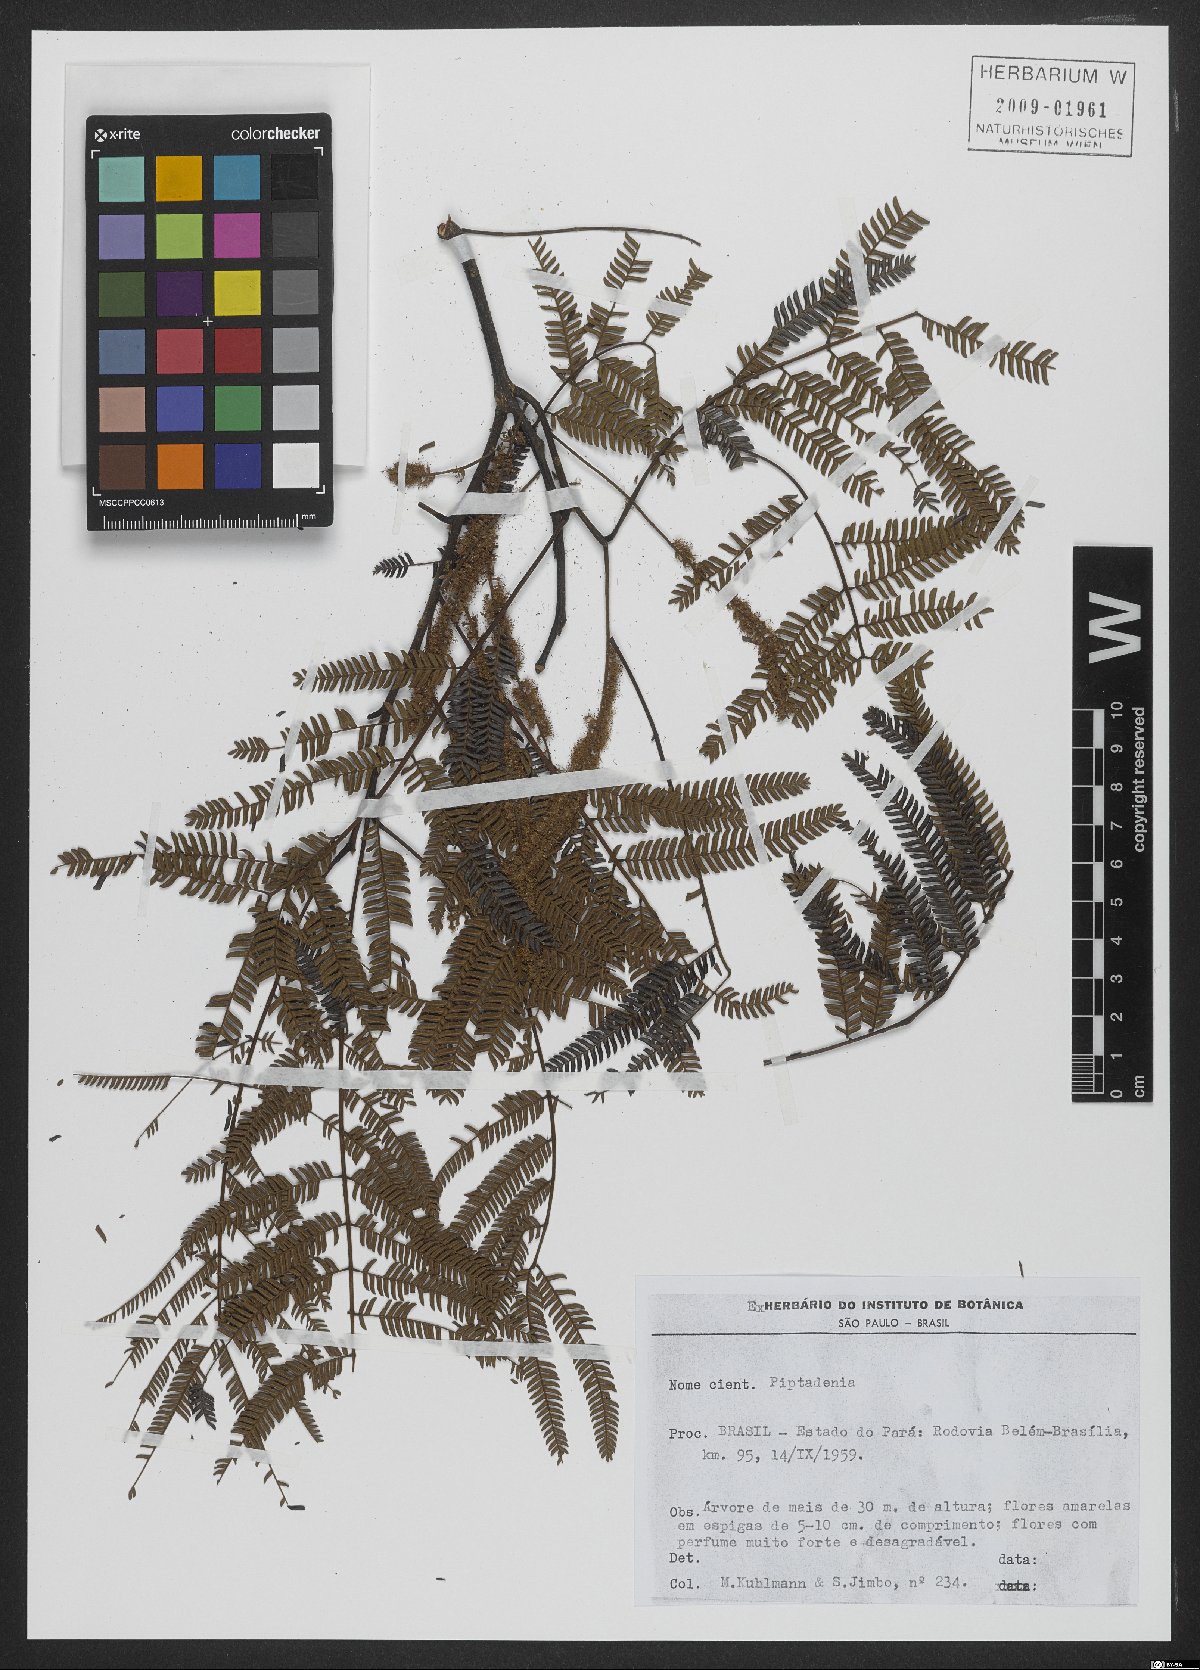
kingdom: Plantae
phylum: Tracheophyta
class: Magnoliopsida
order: Fabales
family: Fabaceae
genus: Piptadenia
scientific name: Piptadenia
